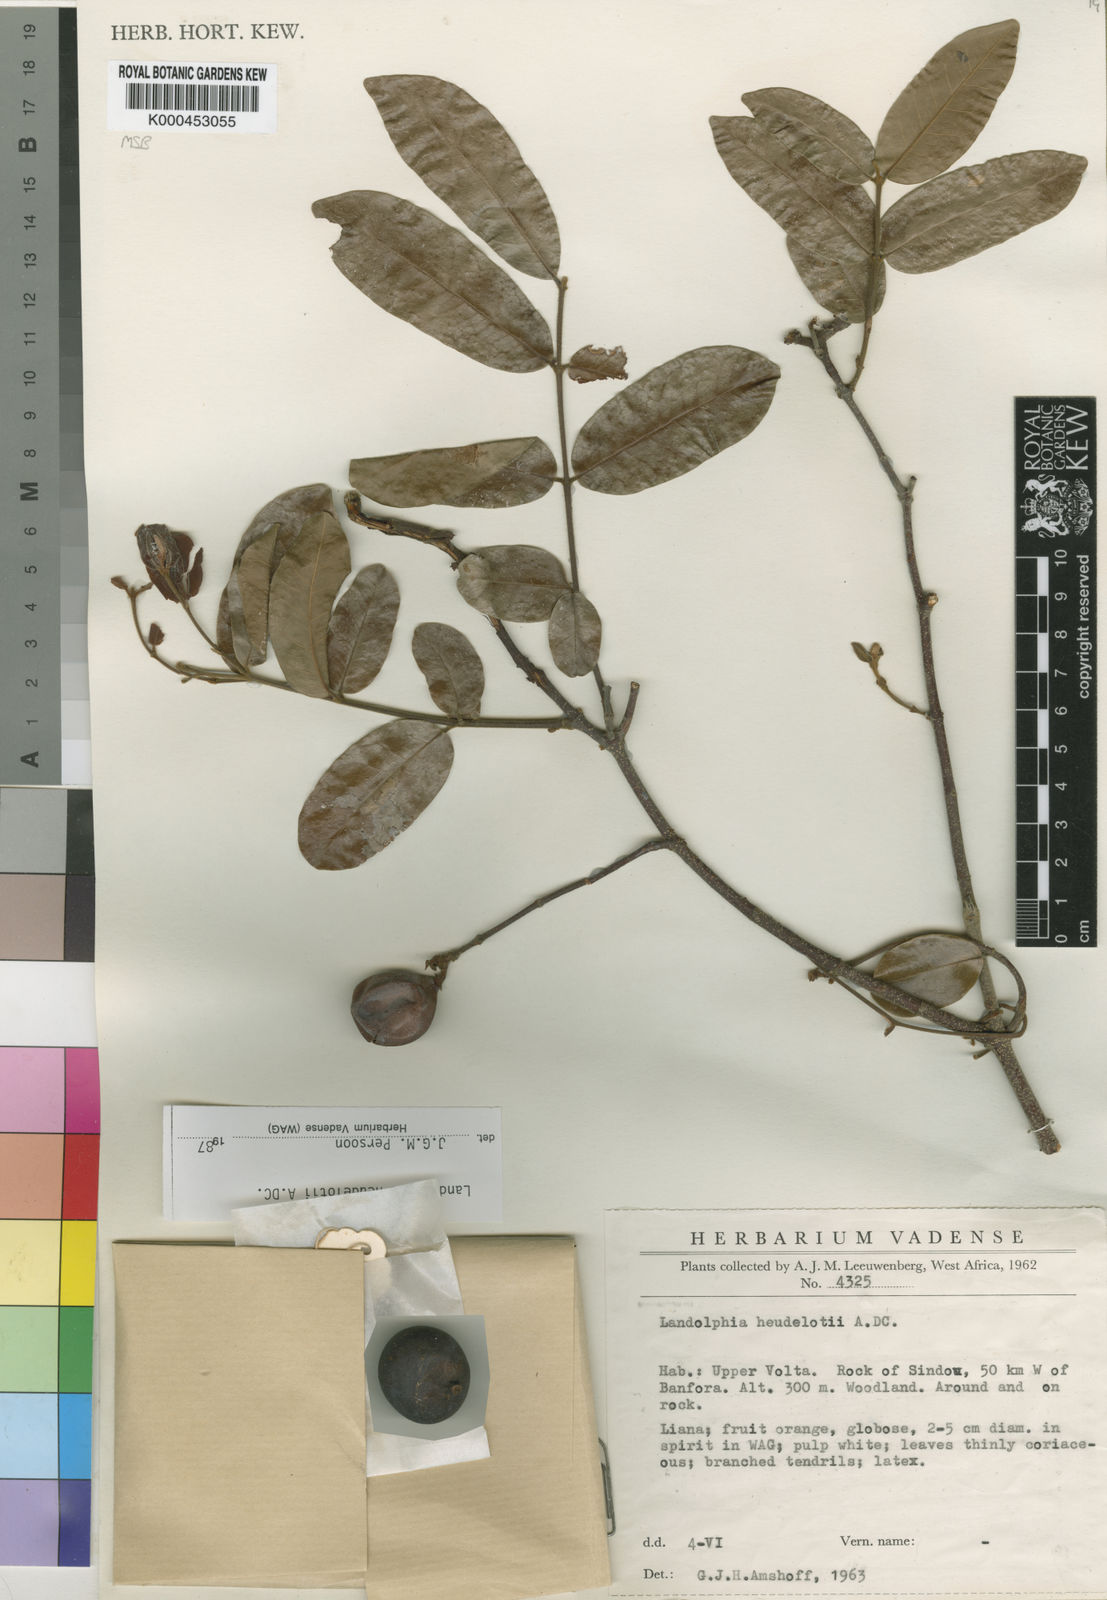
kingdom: Plantae
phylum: Tracheophyta
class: Magnoliopsida
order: Gentianales
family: Apocynaceae
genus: Landolphia
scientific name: Landolphia heudelotii
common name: Landolphia-rubber
